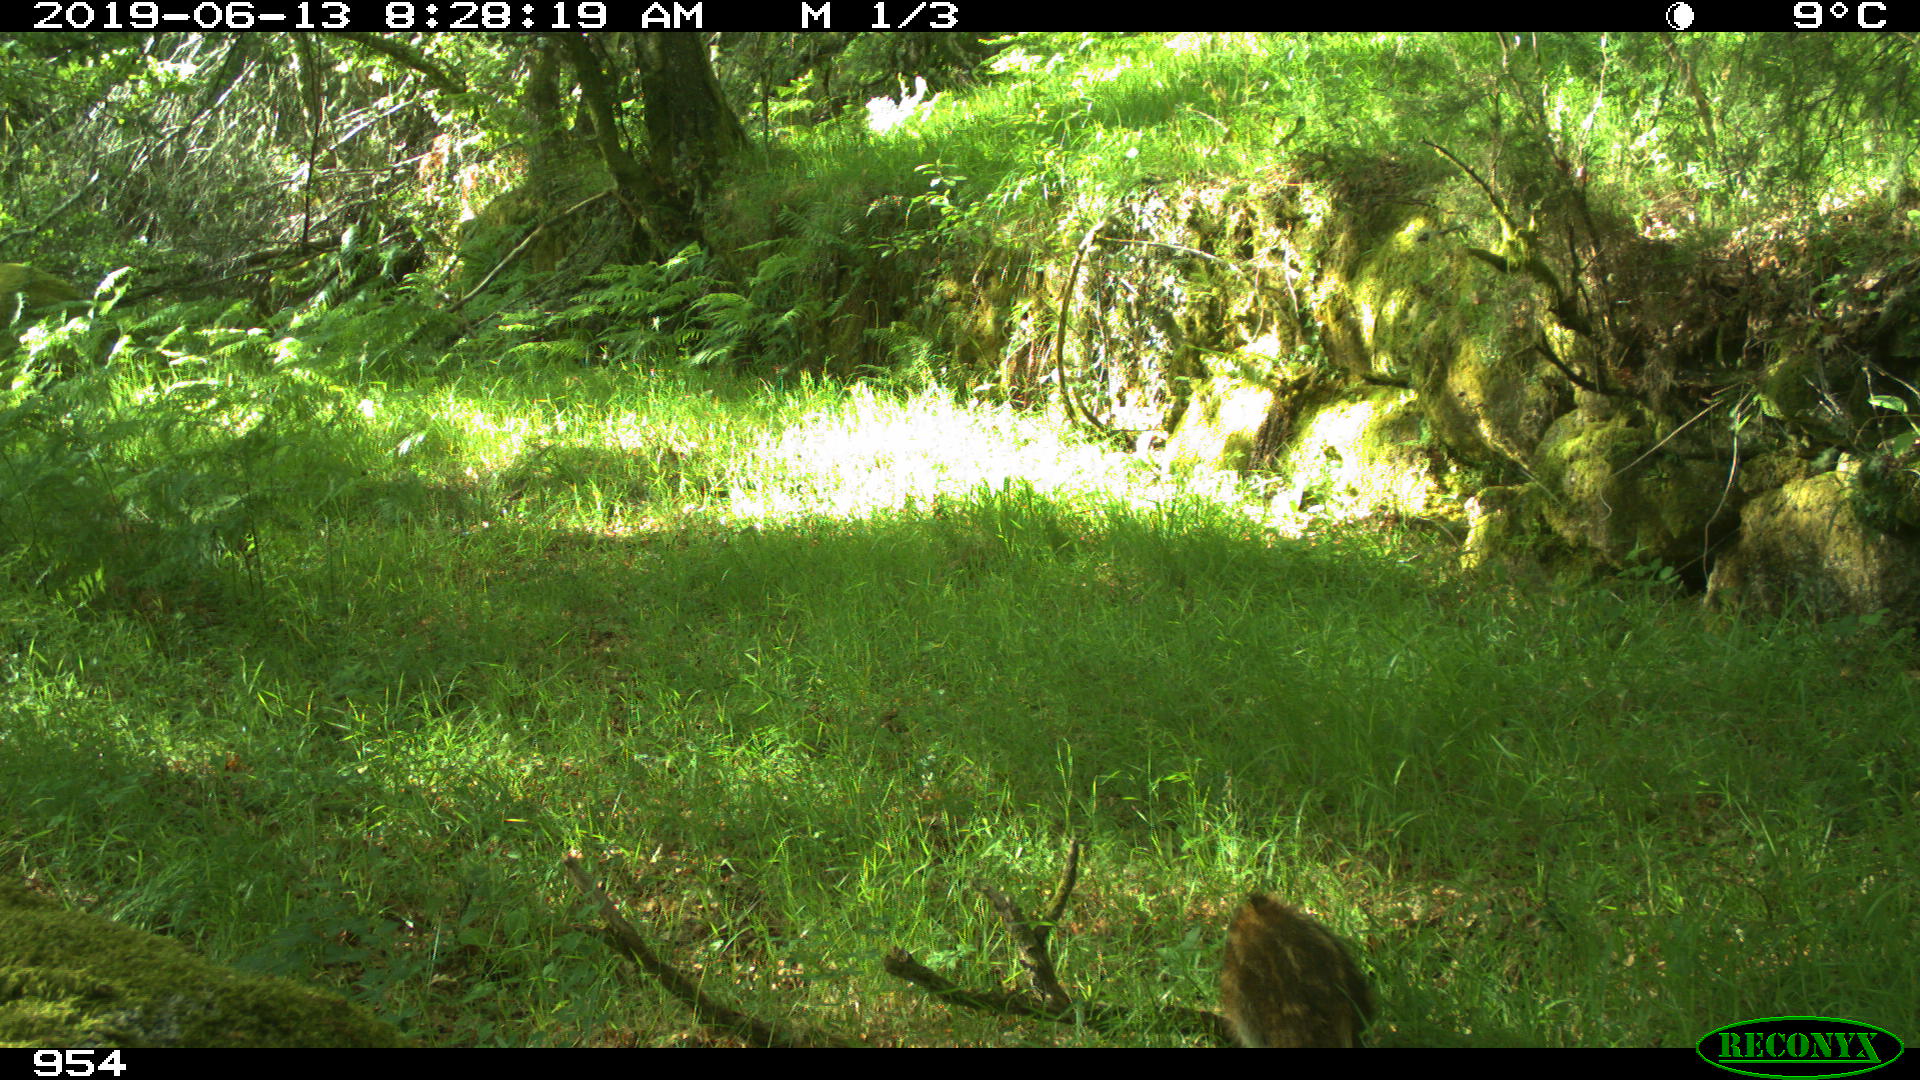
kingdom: Animalia
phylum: Chordata
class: Mammalia
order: Artiodactyla
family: Suidae
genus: Sus
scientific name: Sus scrofa
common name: Wild boar
